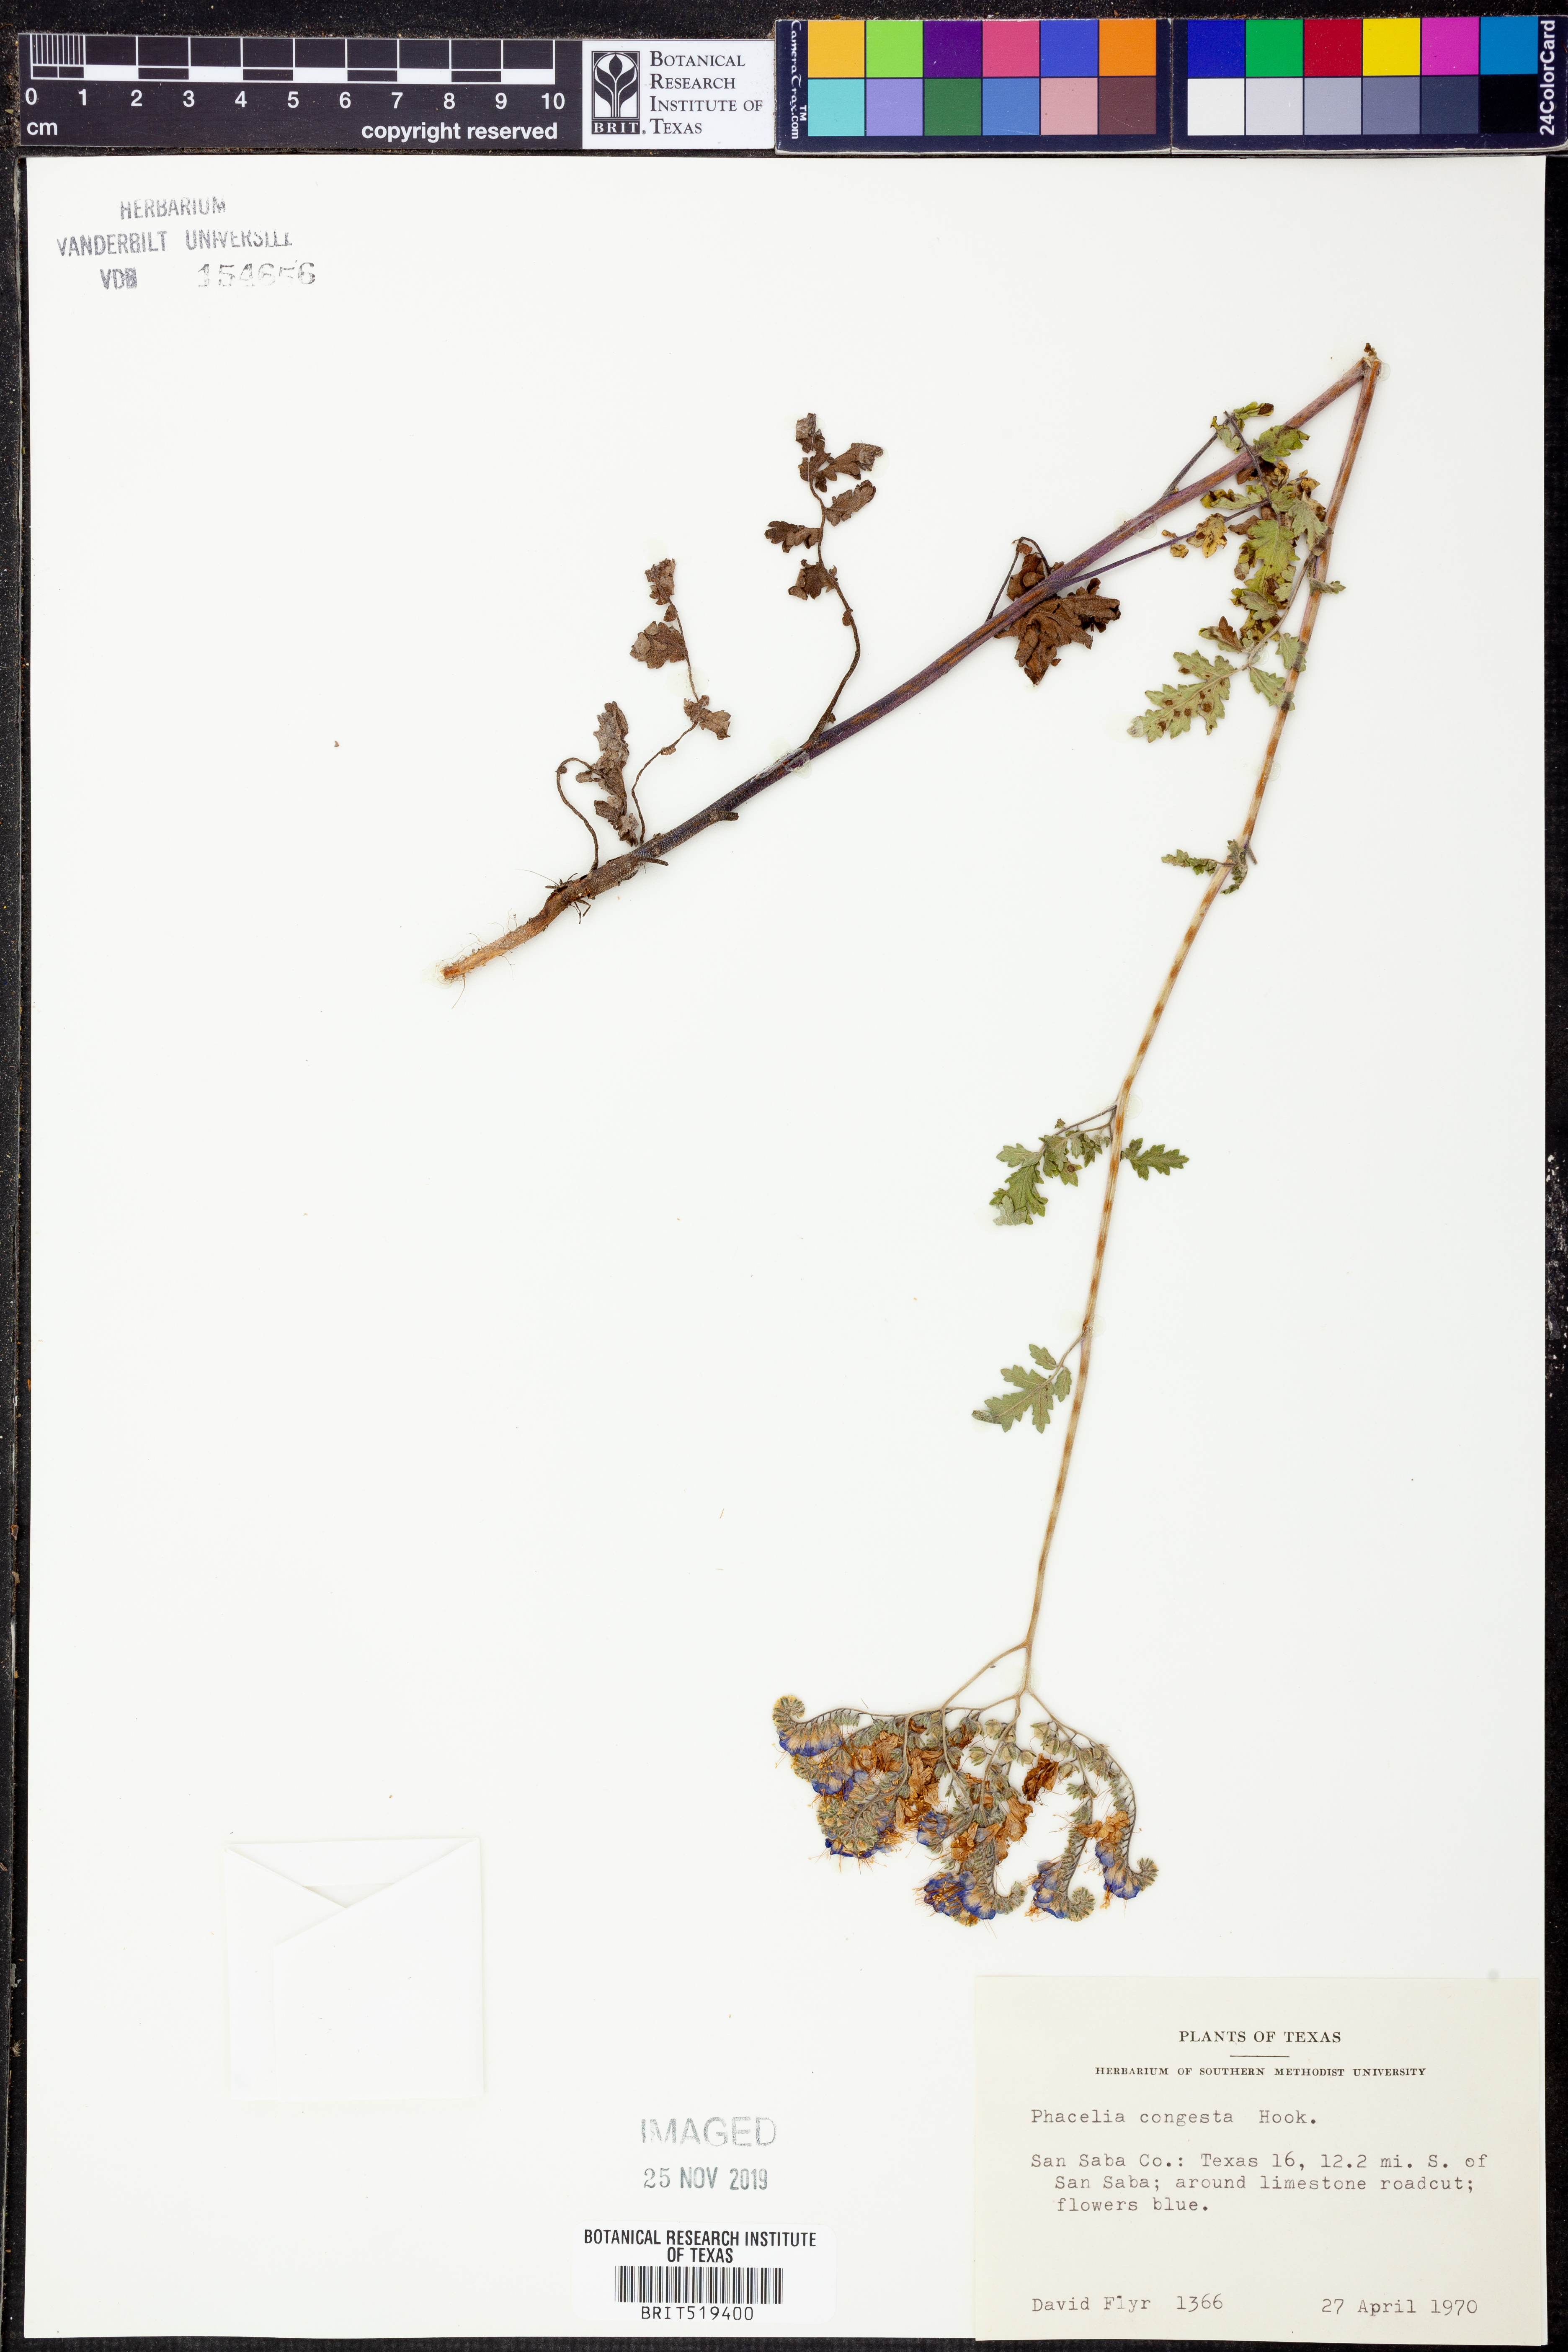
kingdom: Plantae
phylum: Tracheophyta
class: Magnoliopsida
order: Boraginales
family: Hydrophyllaceae
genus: Phacelia
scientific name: Phacelia congesta
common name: Blue curls
